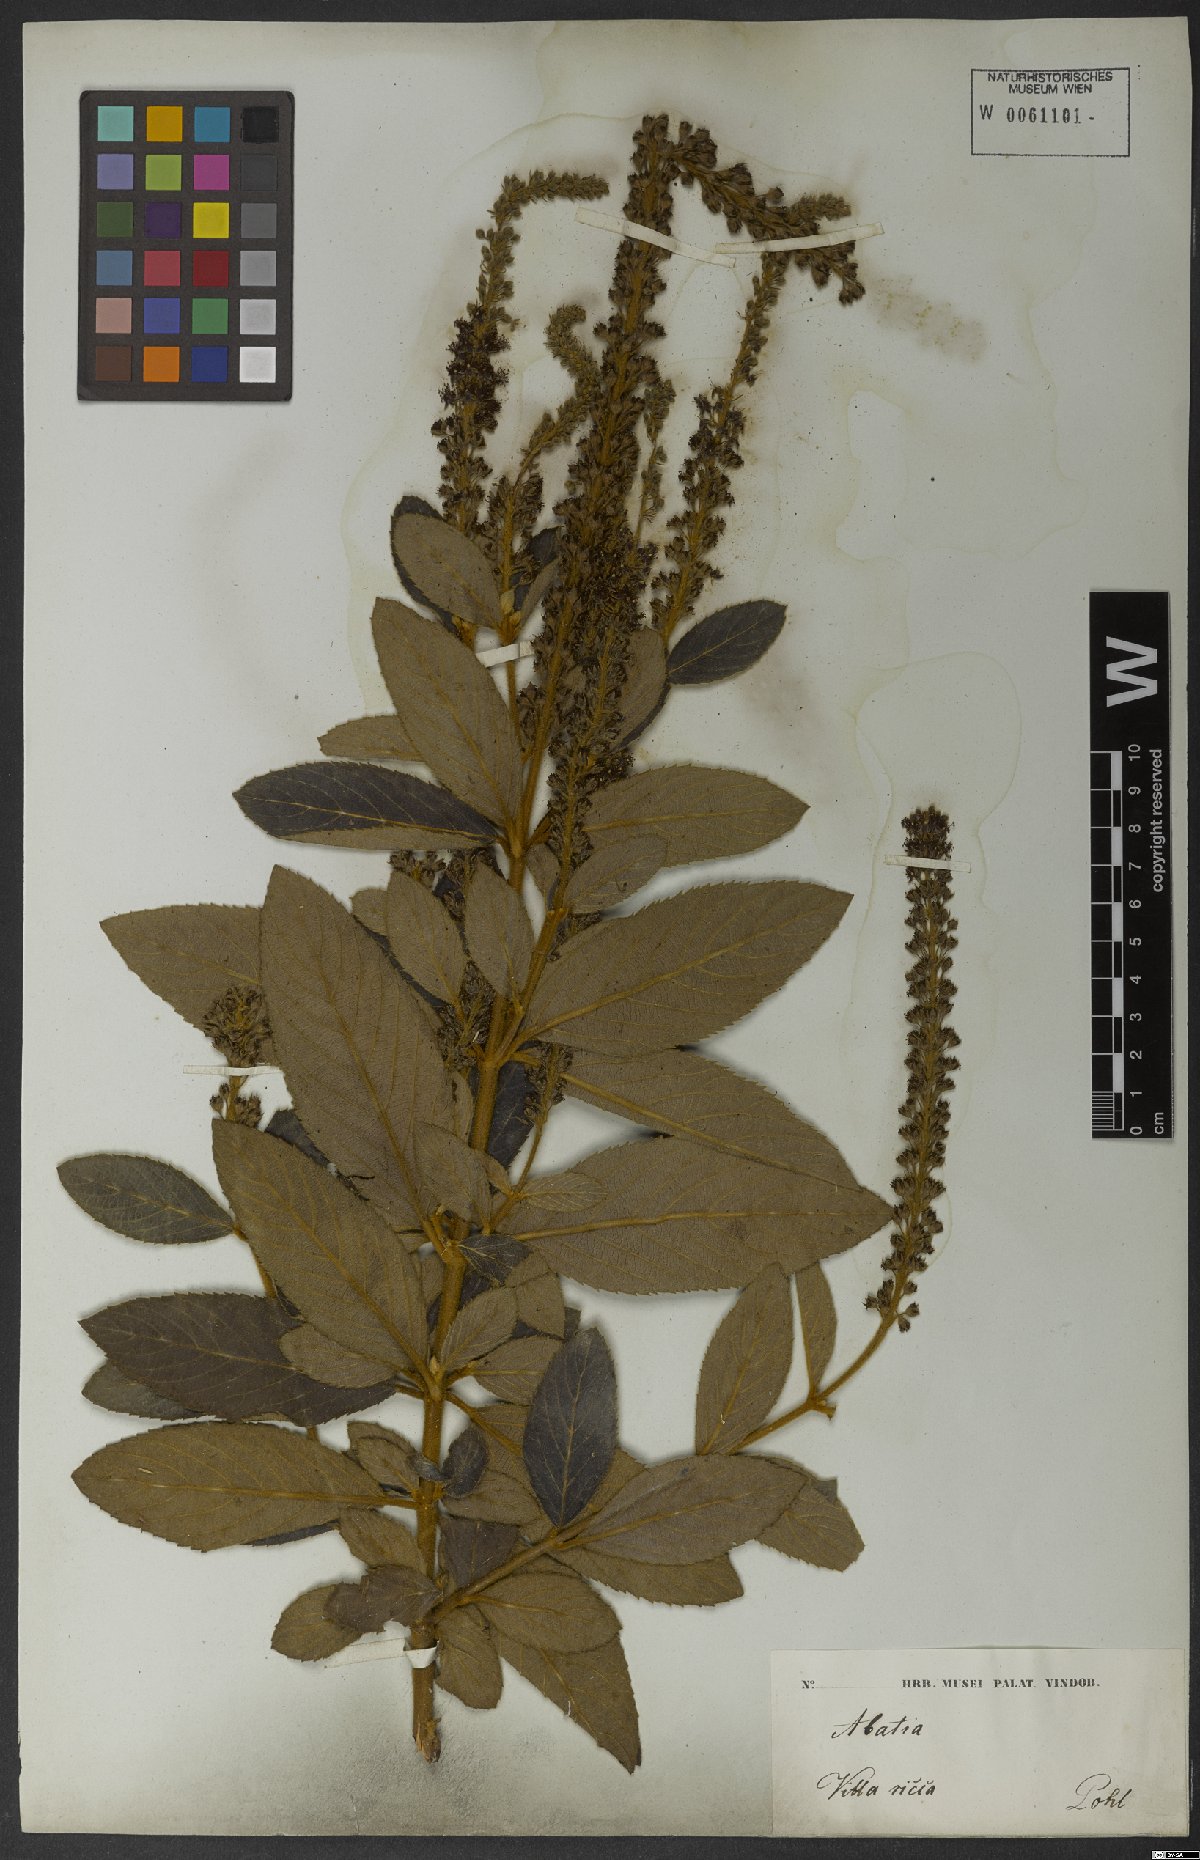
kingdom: Plantae
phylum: Tracheophyta
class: Magnoliopsida
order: Malpighiales
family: Salicaceae
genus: Abatia
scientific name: Abatia americana
